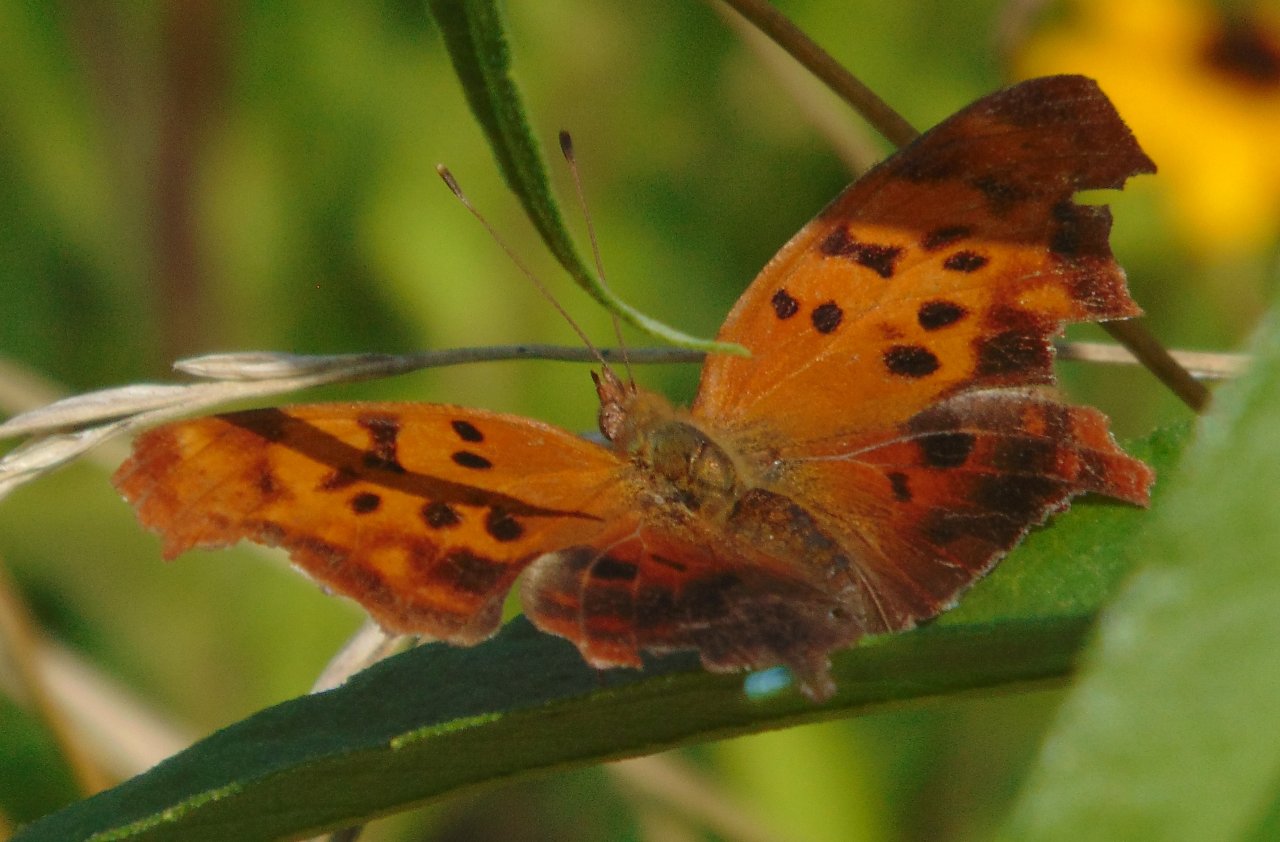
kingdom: Animalia
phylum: Arthropoda
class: Insecta
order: Lepidoptera
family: Nymphalidae
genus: Polygonia
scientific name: Polygonia interrogationis
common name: Question Mark
